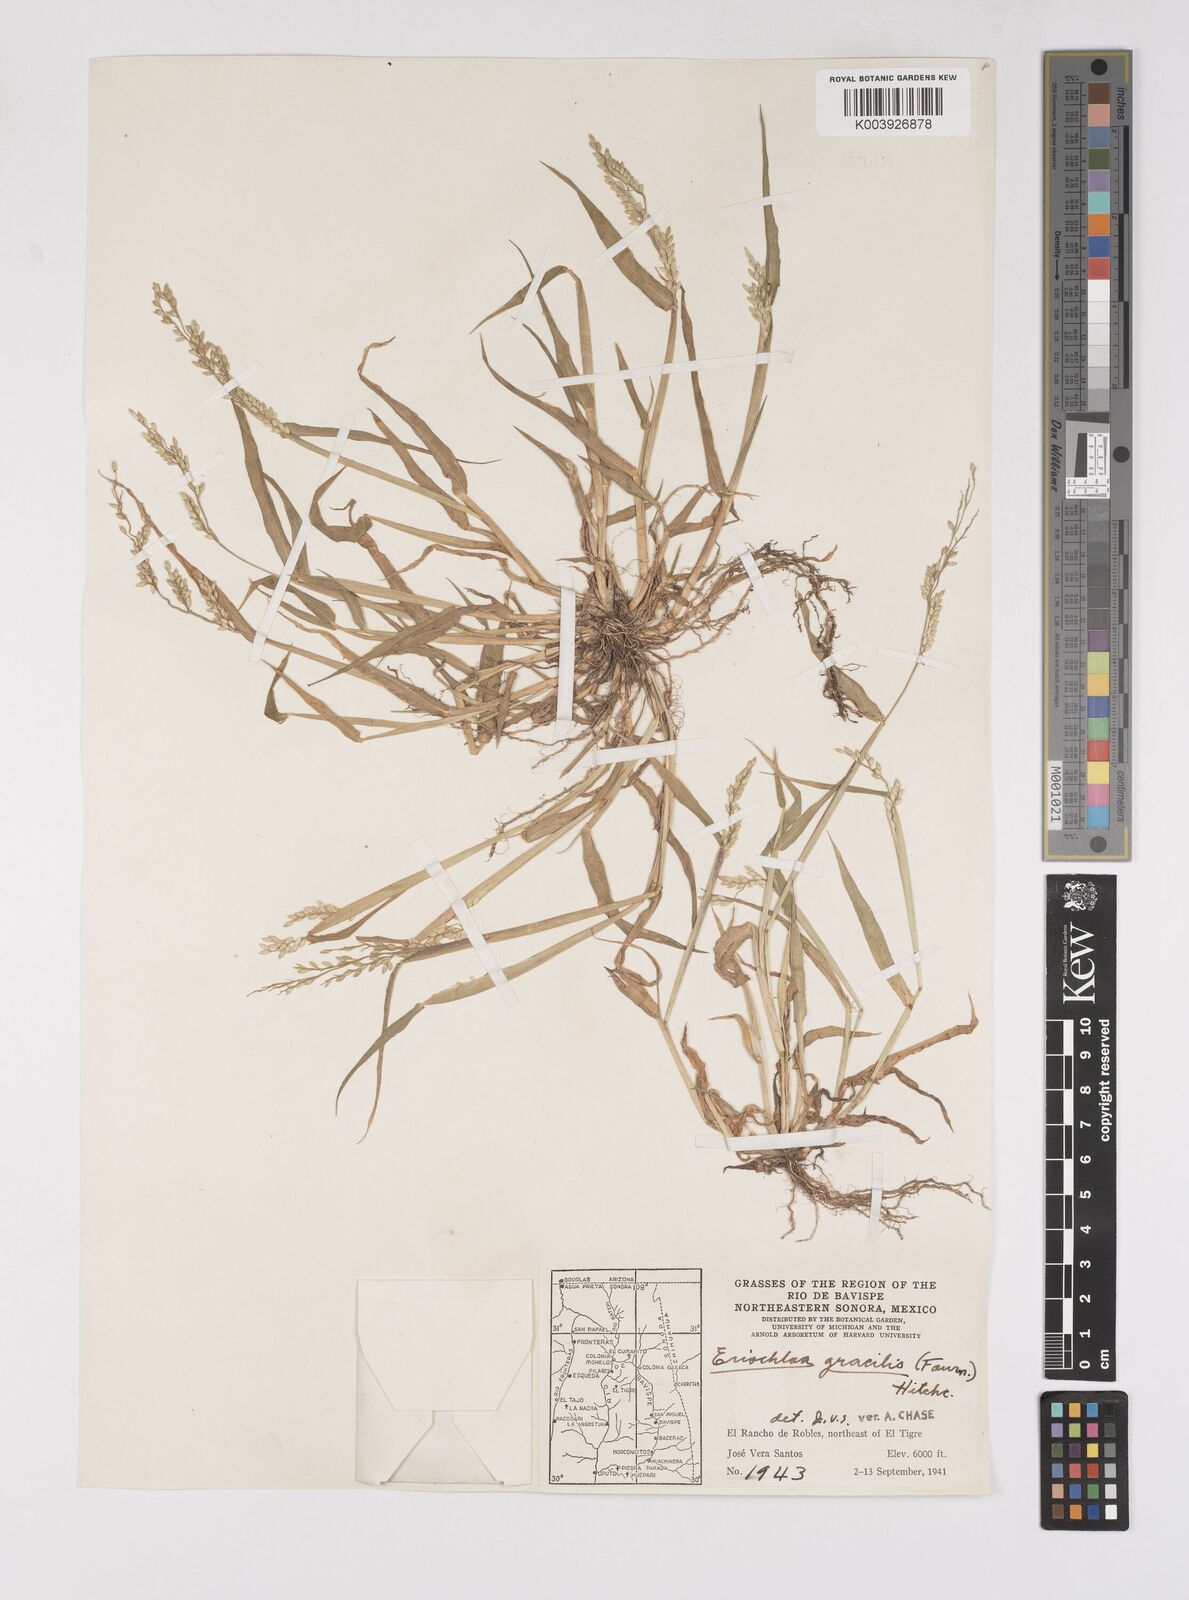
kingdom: Plantae
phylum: Tracheophyta
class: Liliopsida
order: Poales
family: Poaceae
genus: Eriochloa
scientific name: Eriochloa acuminata
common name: Southwestern cup grass
